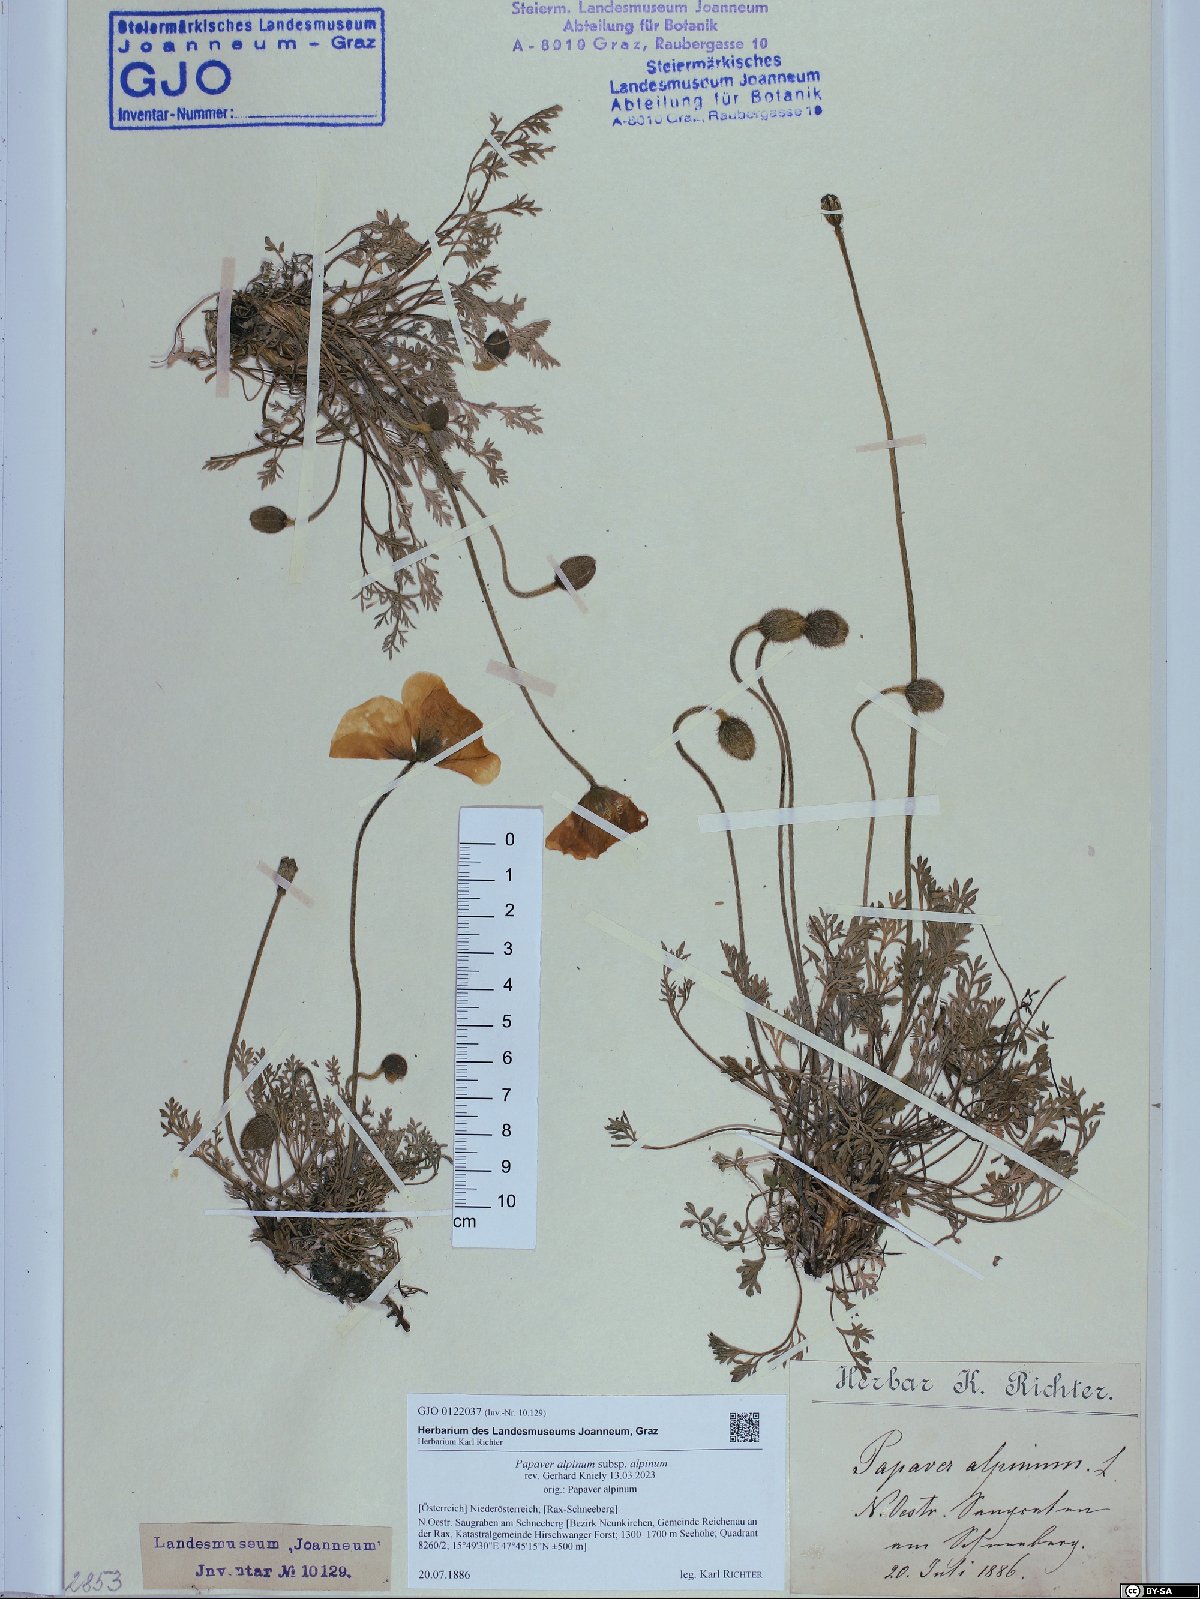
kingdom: Plantae
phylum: Tracheophyta
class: Magnoliopsida
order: Ranunculales
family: Papaveraceae
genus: Papaver
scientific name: Papaver alpinum
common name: Austrian poppy
